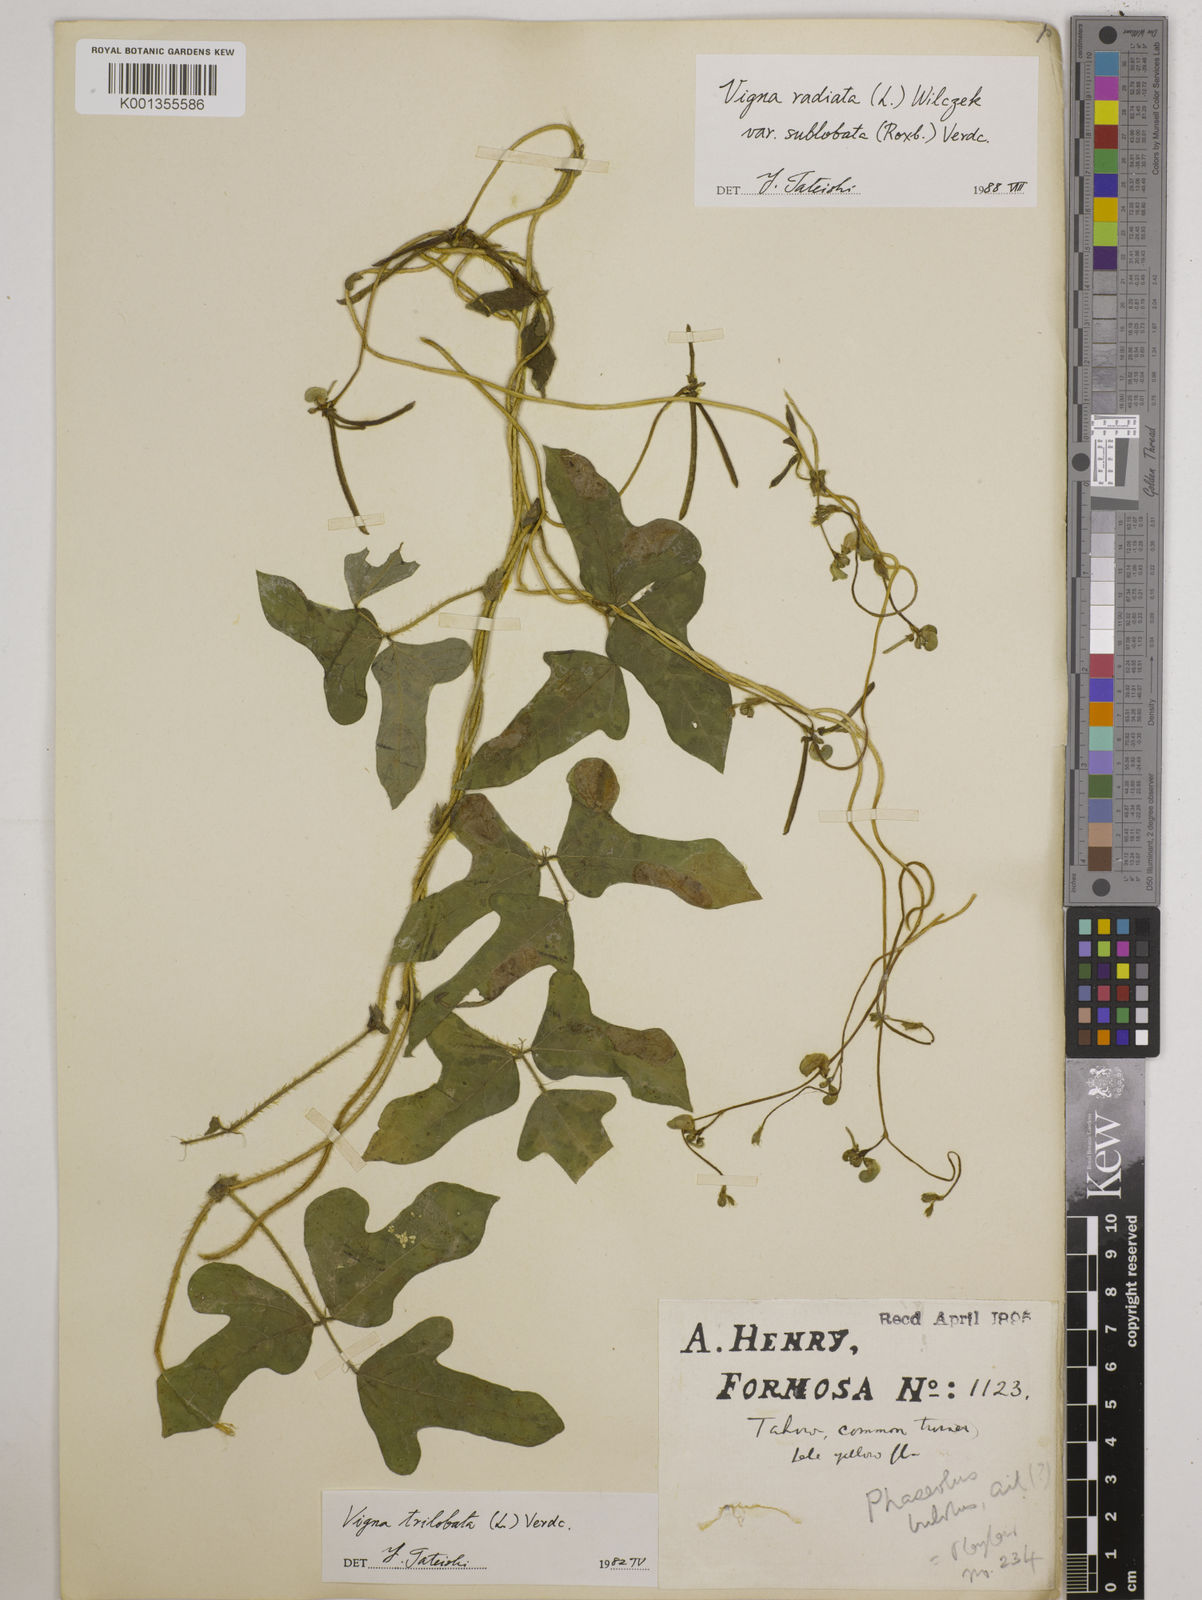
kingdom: Plantae
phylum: Tracheophyta
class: Magnoliopsida
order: Fabales
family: Fabaceae
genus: Vigna
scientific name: Vigna trilobata
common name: Jungli-bean
